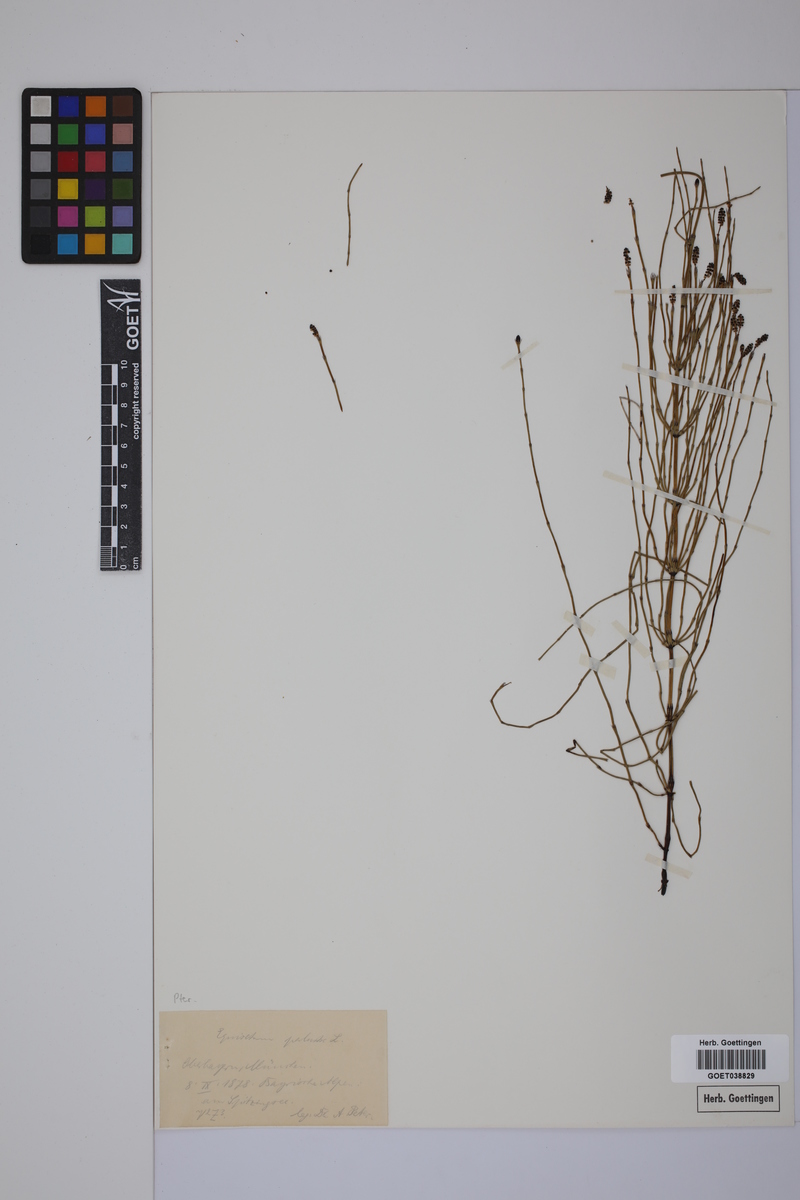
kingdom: Plantae
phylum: Tracheophyta
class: Polypodiopsida
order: Equisetales
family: Equisetaceae
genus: Equisetum
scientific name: Equisetum palustre
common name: Marsh horsetail
